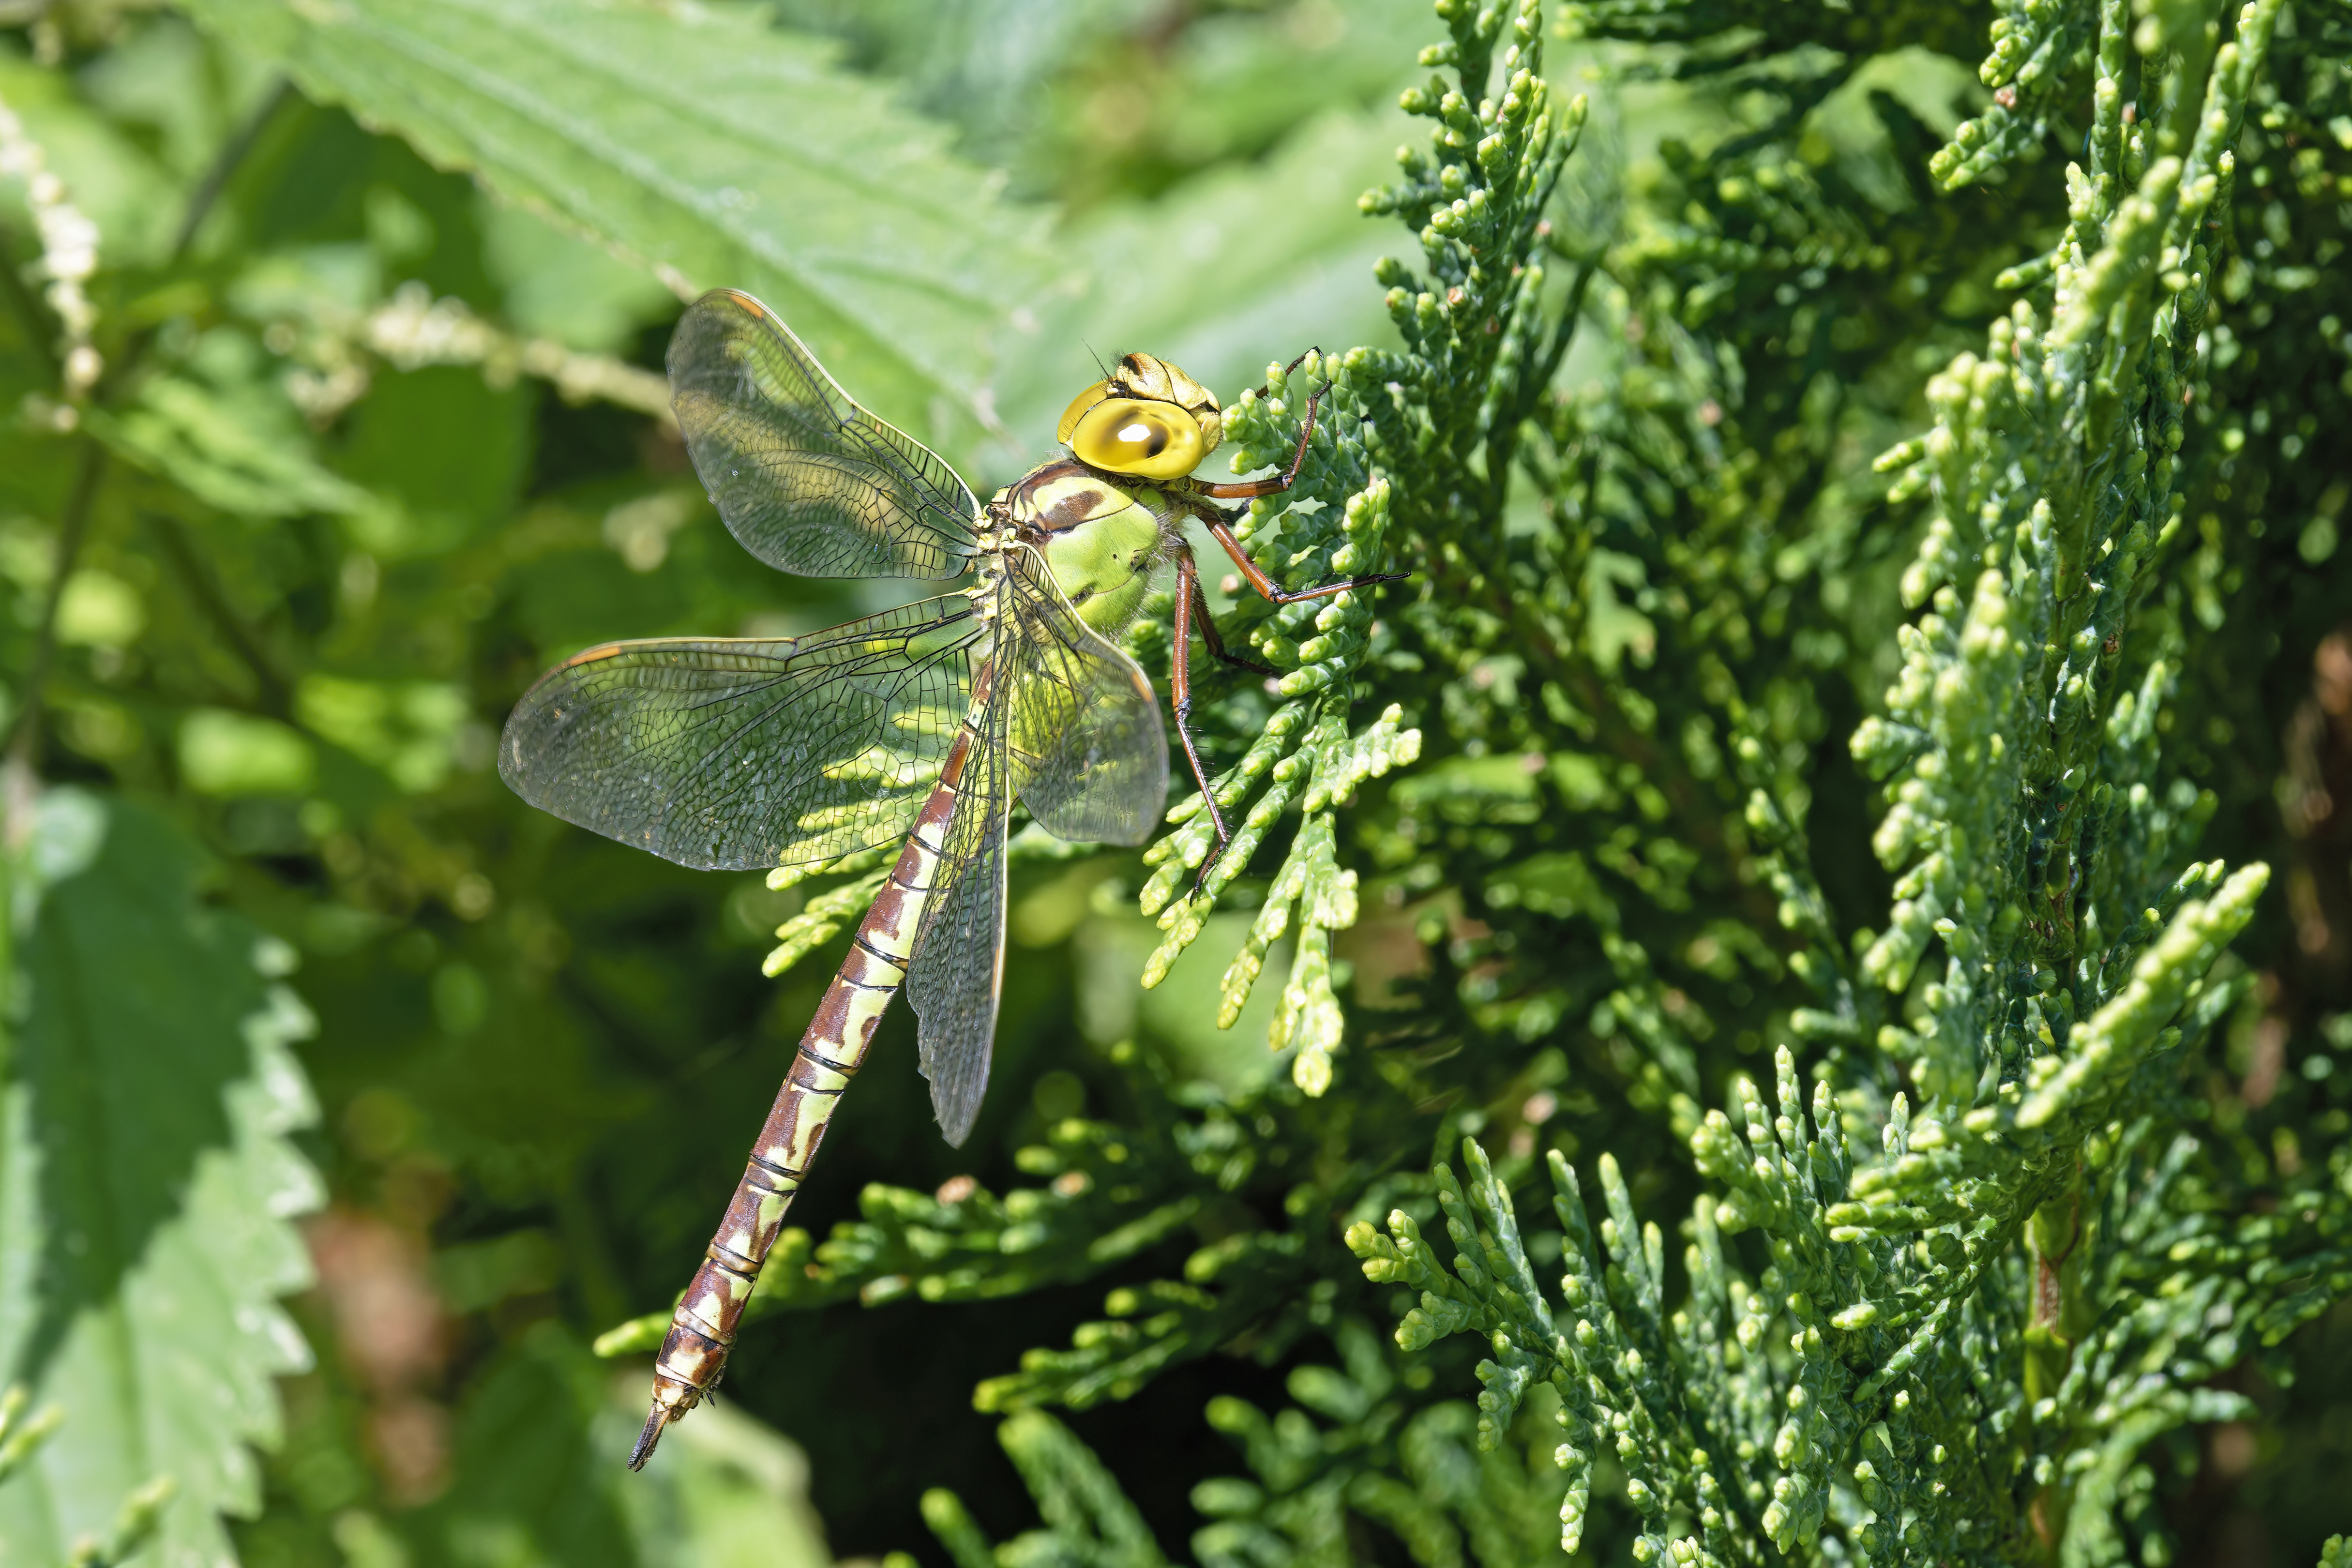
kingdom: Animalia
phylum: Arthropoda
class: Insecta
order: Odonata
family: Aeshnidae
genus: Aeshna
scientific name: Aeshna viridis
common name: Grøn mosaikguldsmed
